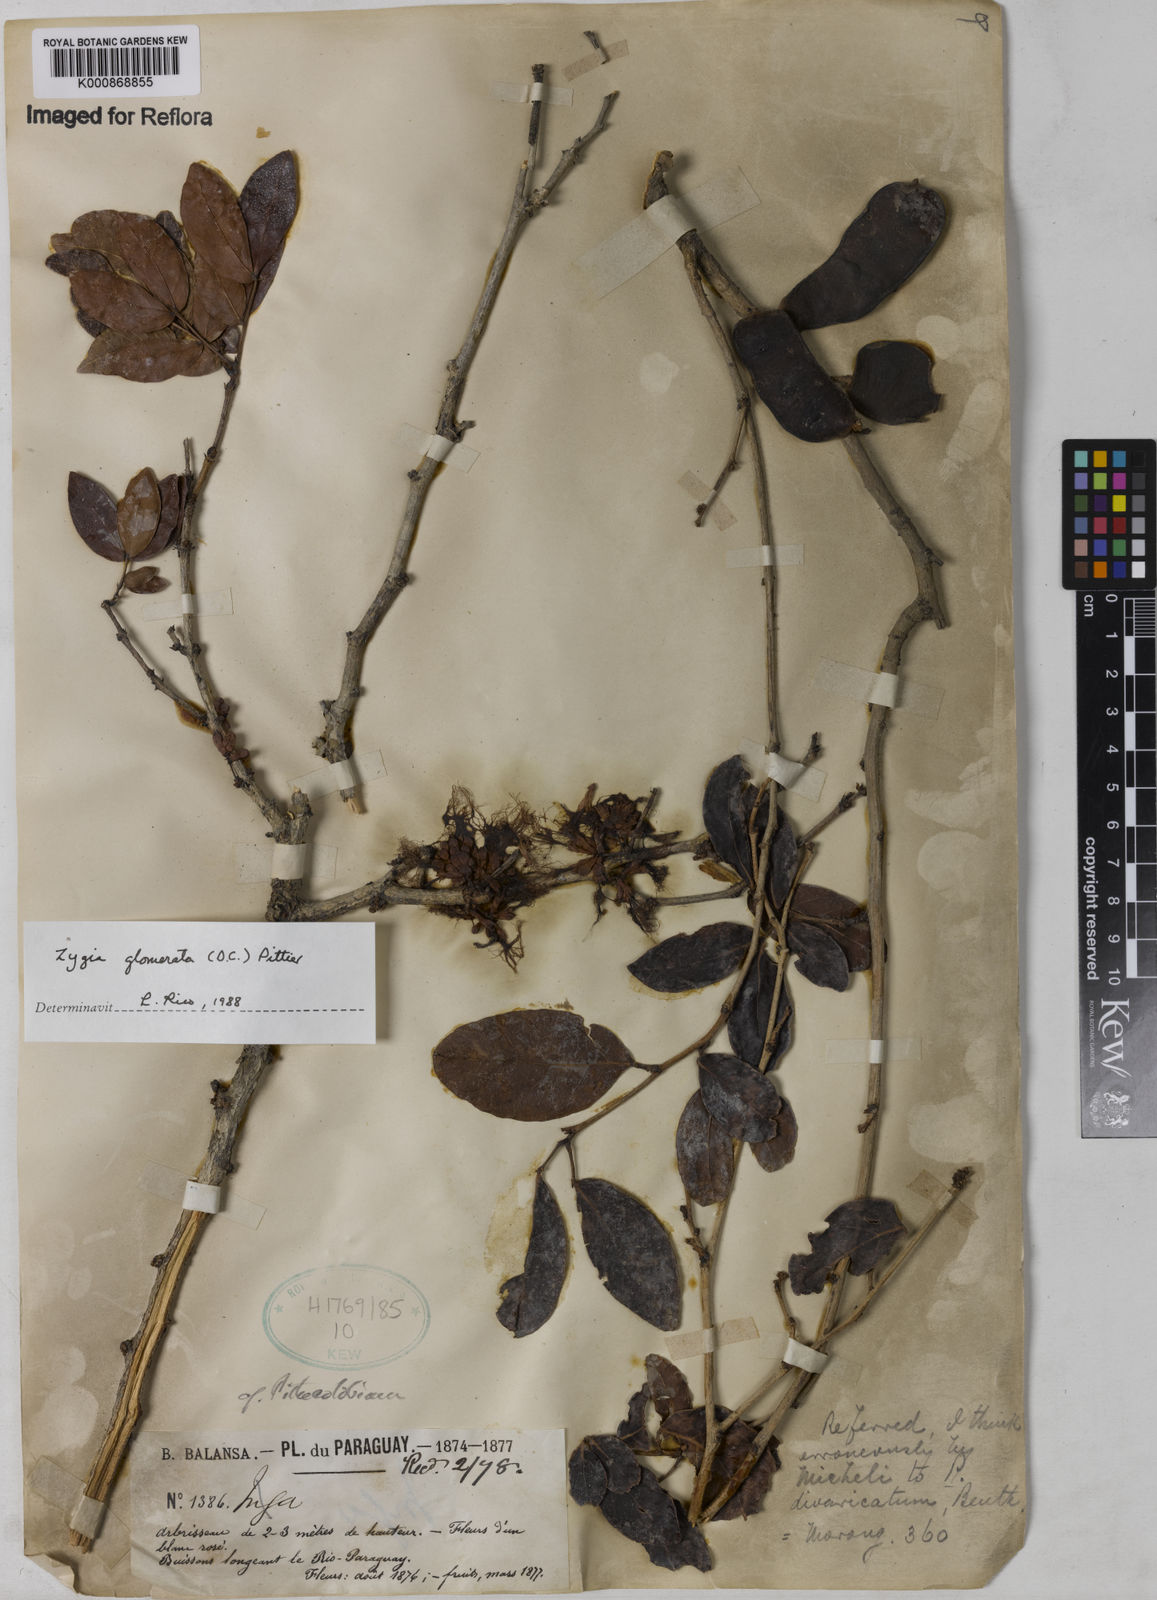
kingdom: Plantae
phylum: Tracheophyta
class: Magnoliopsida
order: Fabales
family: Fabaceae
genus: Zygia
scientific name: Zygia cataractae
